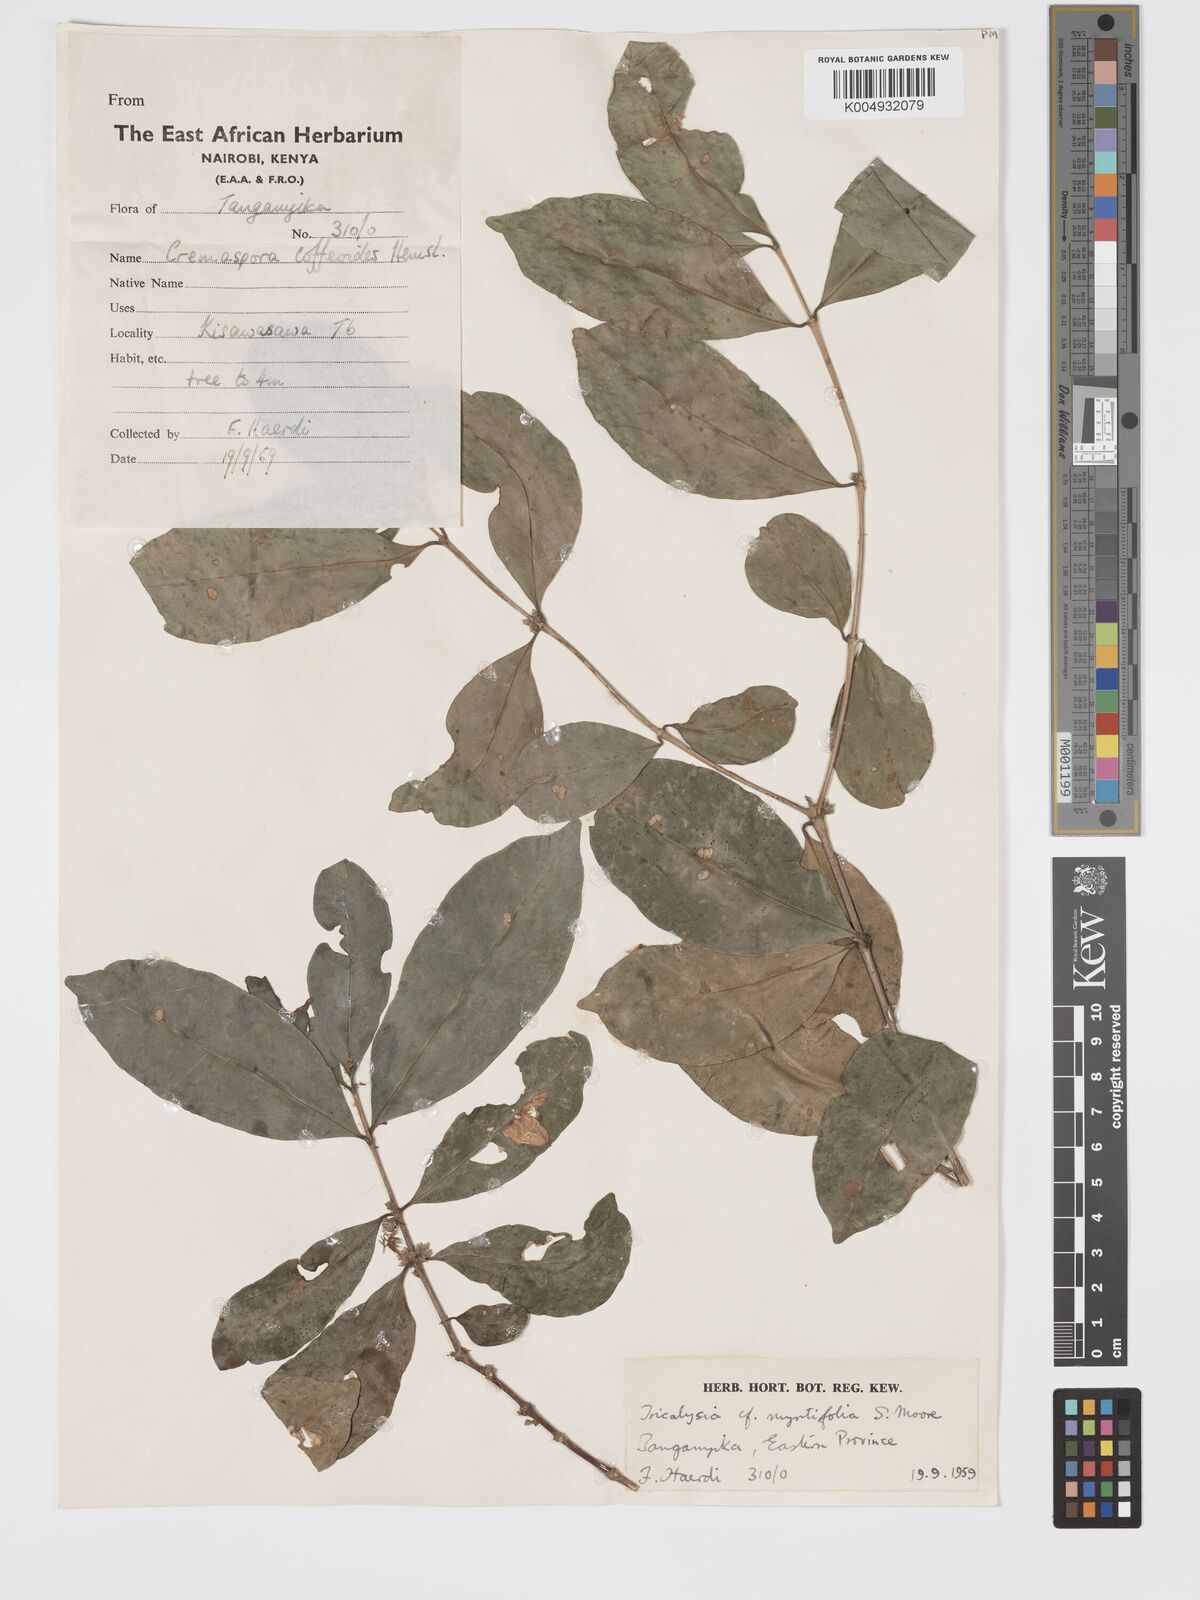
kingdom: Plantae
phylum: Tracheophyta
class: Magnoliopsida
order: Gentianales
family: Rubiaceae
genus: Tricalysia
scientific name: Tricalysia pallens
